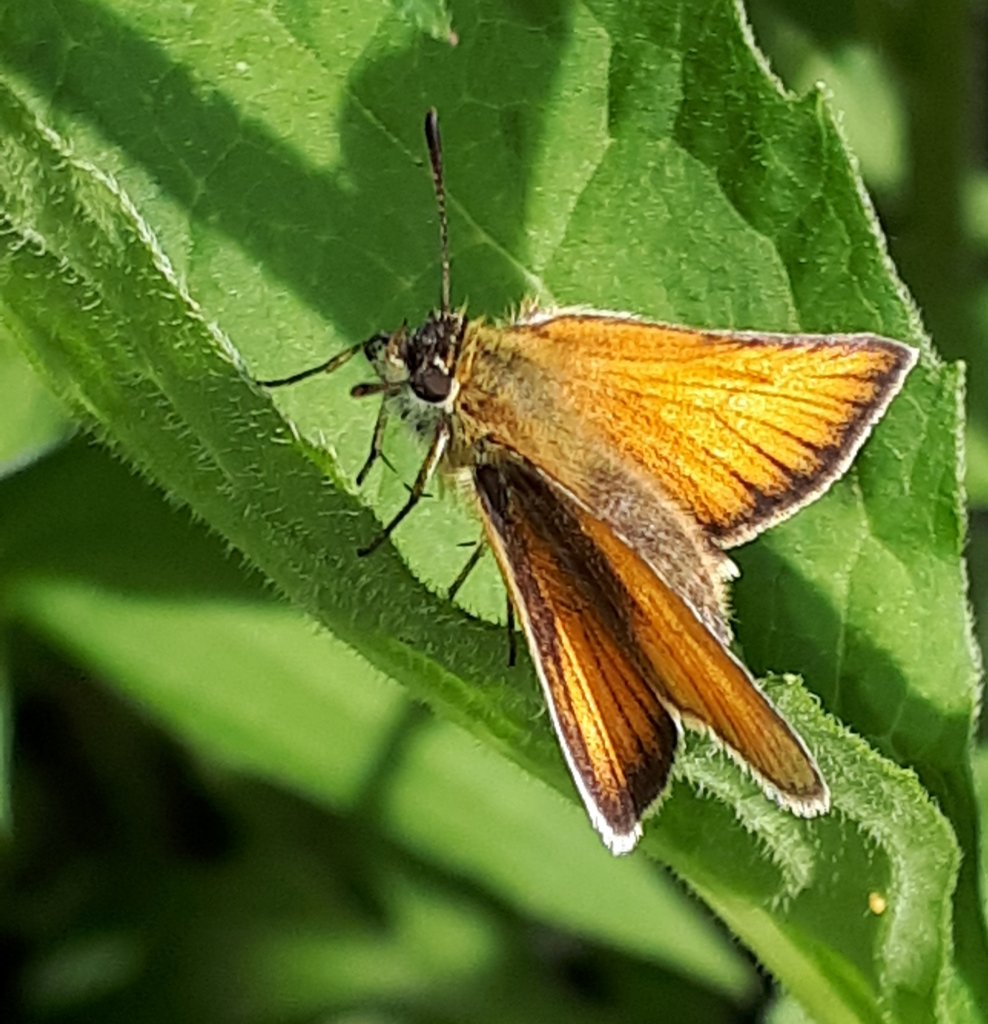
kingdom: Animalia
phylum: Arthropoda
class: Insecta
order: Lepidoptera
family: Hesperiidae
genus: Thymelicus
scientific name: Thymelicus lineola
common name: European Skipper
